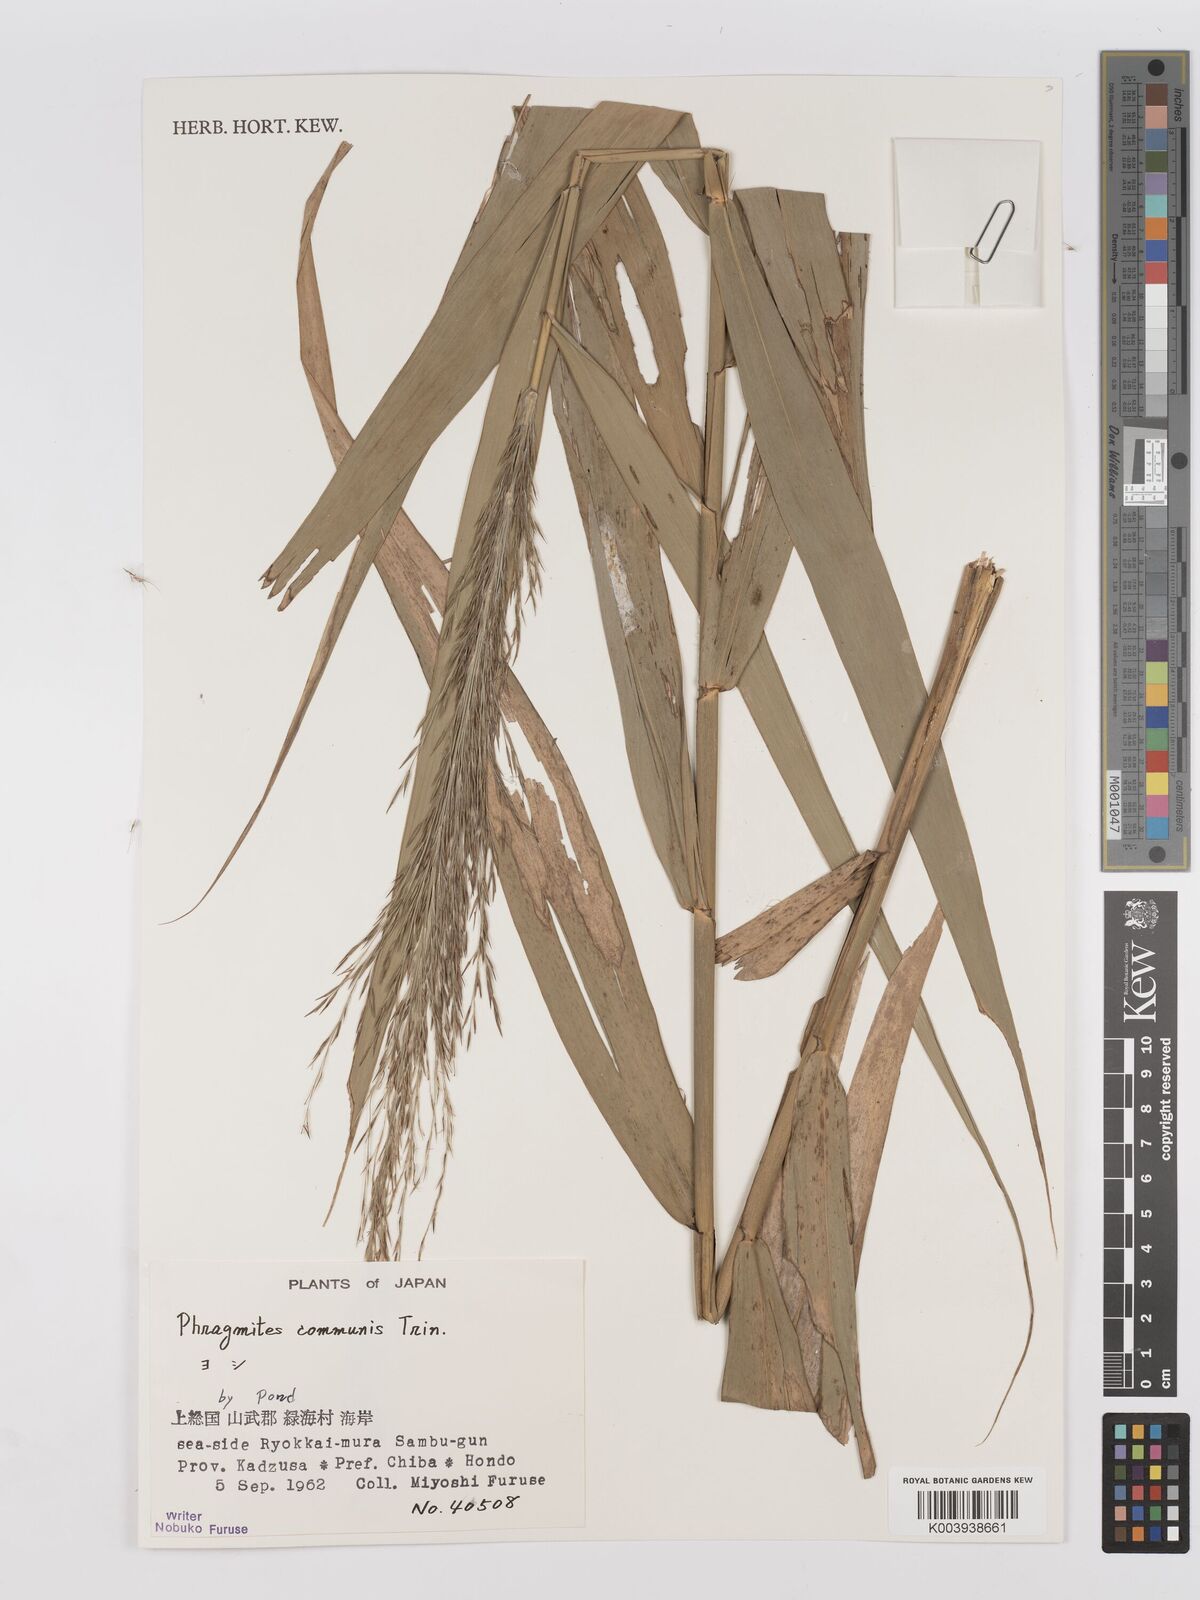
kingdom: Plantae
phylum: Tracheophyta
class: Liliopsida
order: Poales
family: Poaceae
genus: Phragmites
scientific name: Phragmites australis
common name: Common reed
